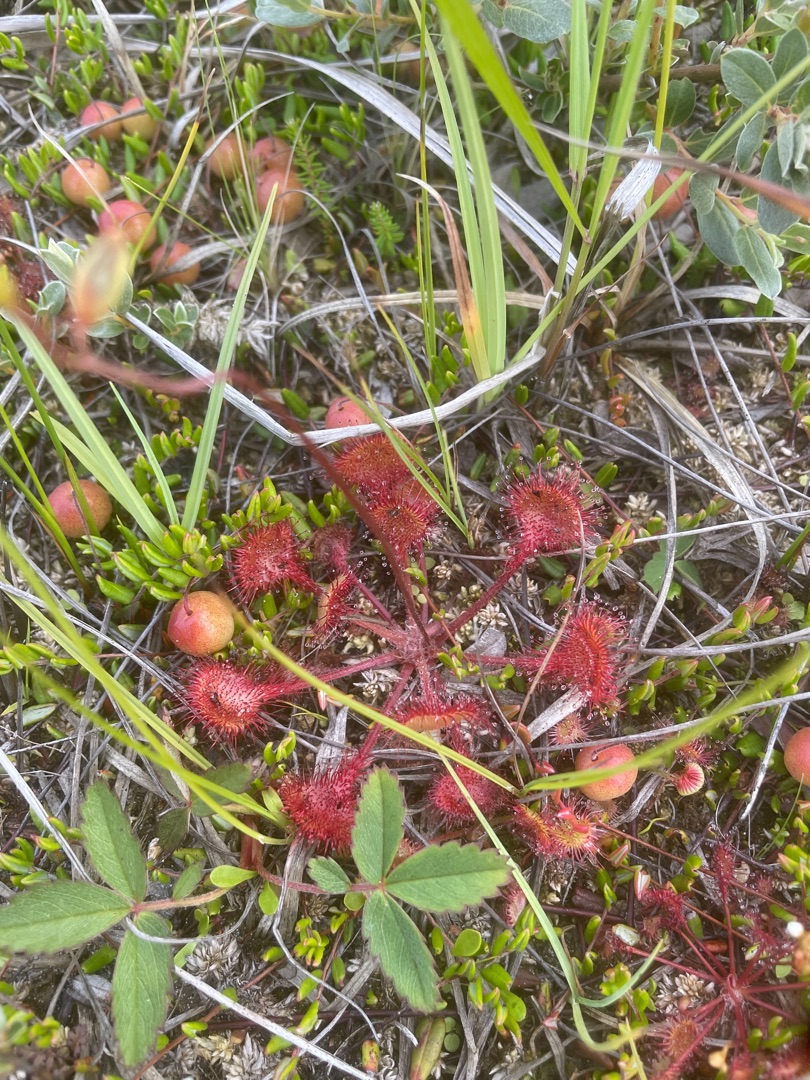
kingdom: Plantae
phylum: Tracheophyta
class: Magnoliopsida
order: Caryophyllales
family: Droseraceae
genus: Drosera
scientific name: Drosera rotundifolia
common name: Rundbladet soldug
